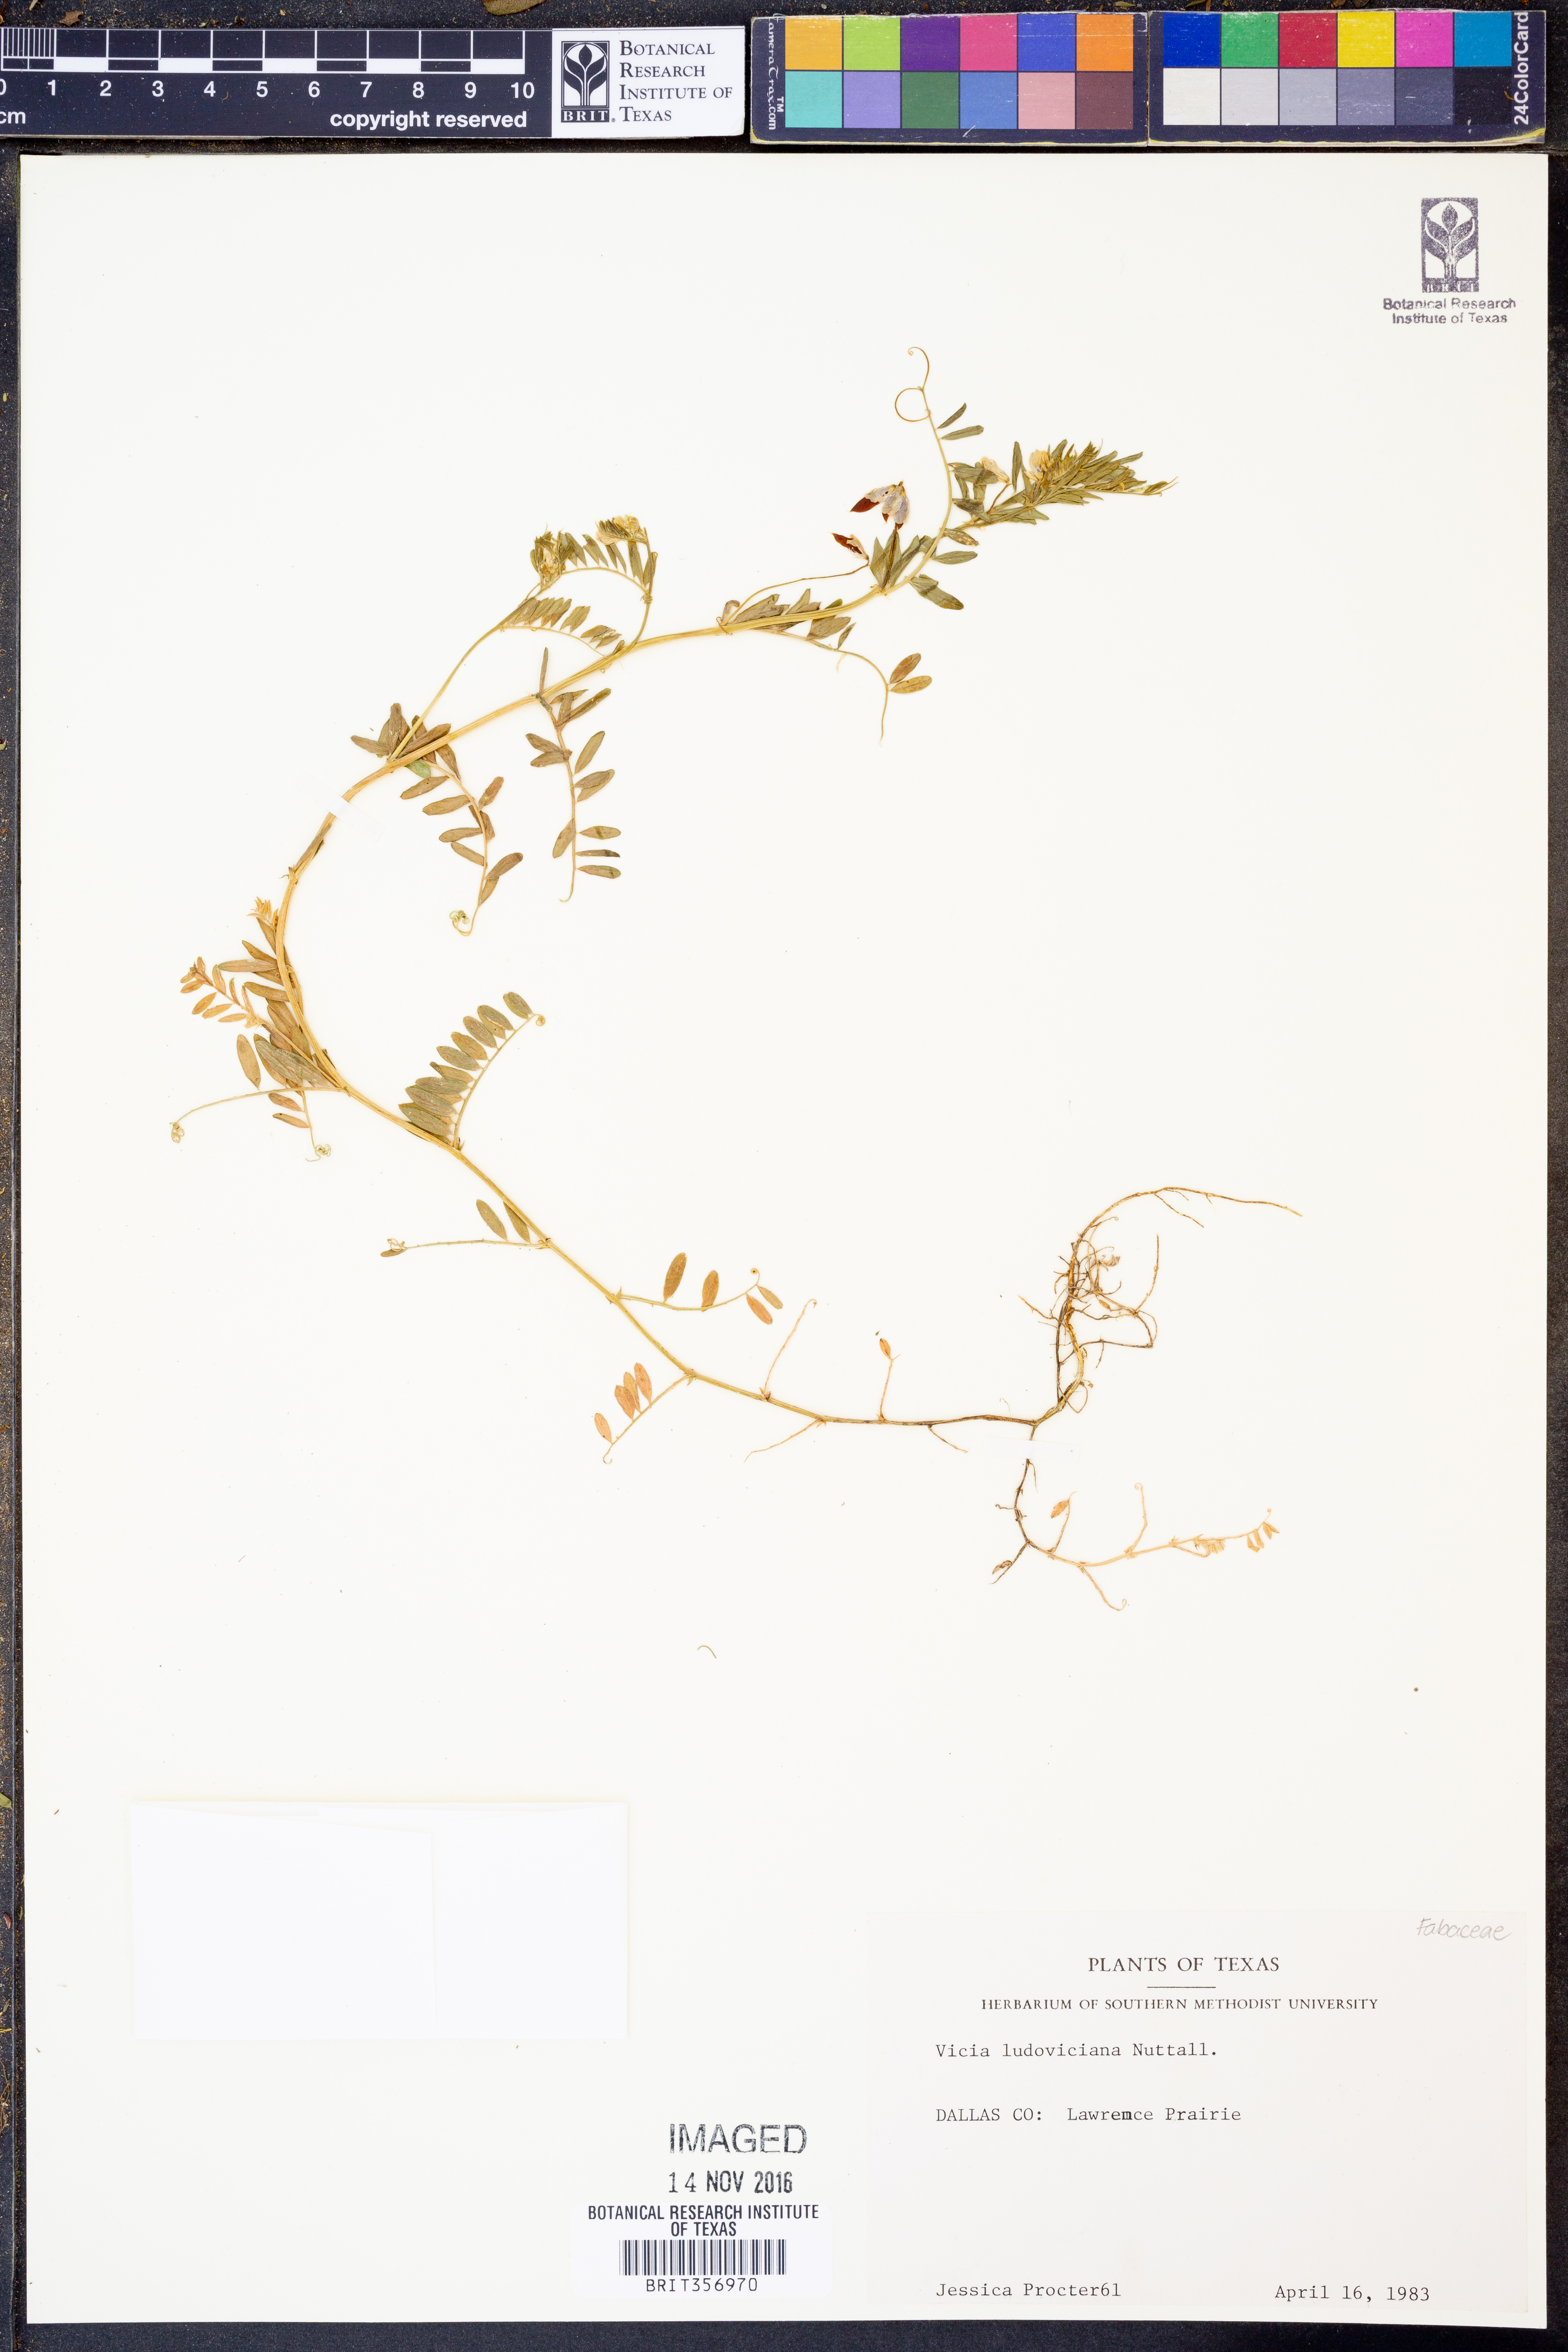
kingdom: Plantae
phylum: Tracheophyta
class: Magnoliopsida
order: Fabales
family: Fabaceae
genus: Vicia
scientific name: Vicia ludoviciana
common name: Louisiana vetch
